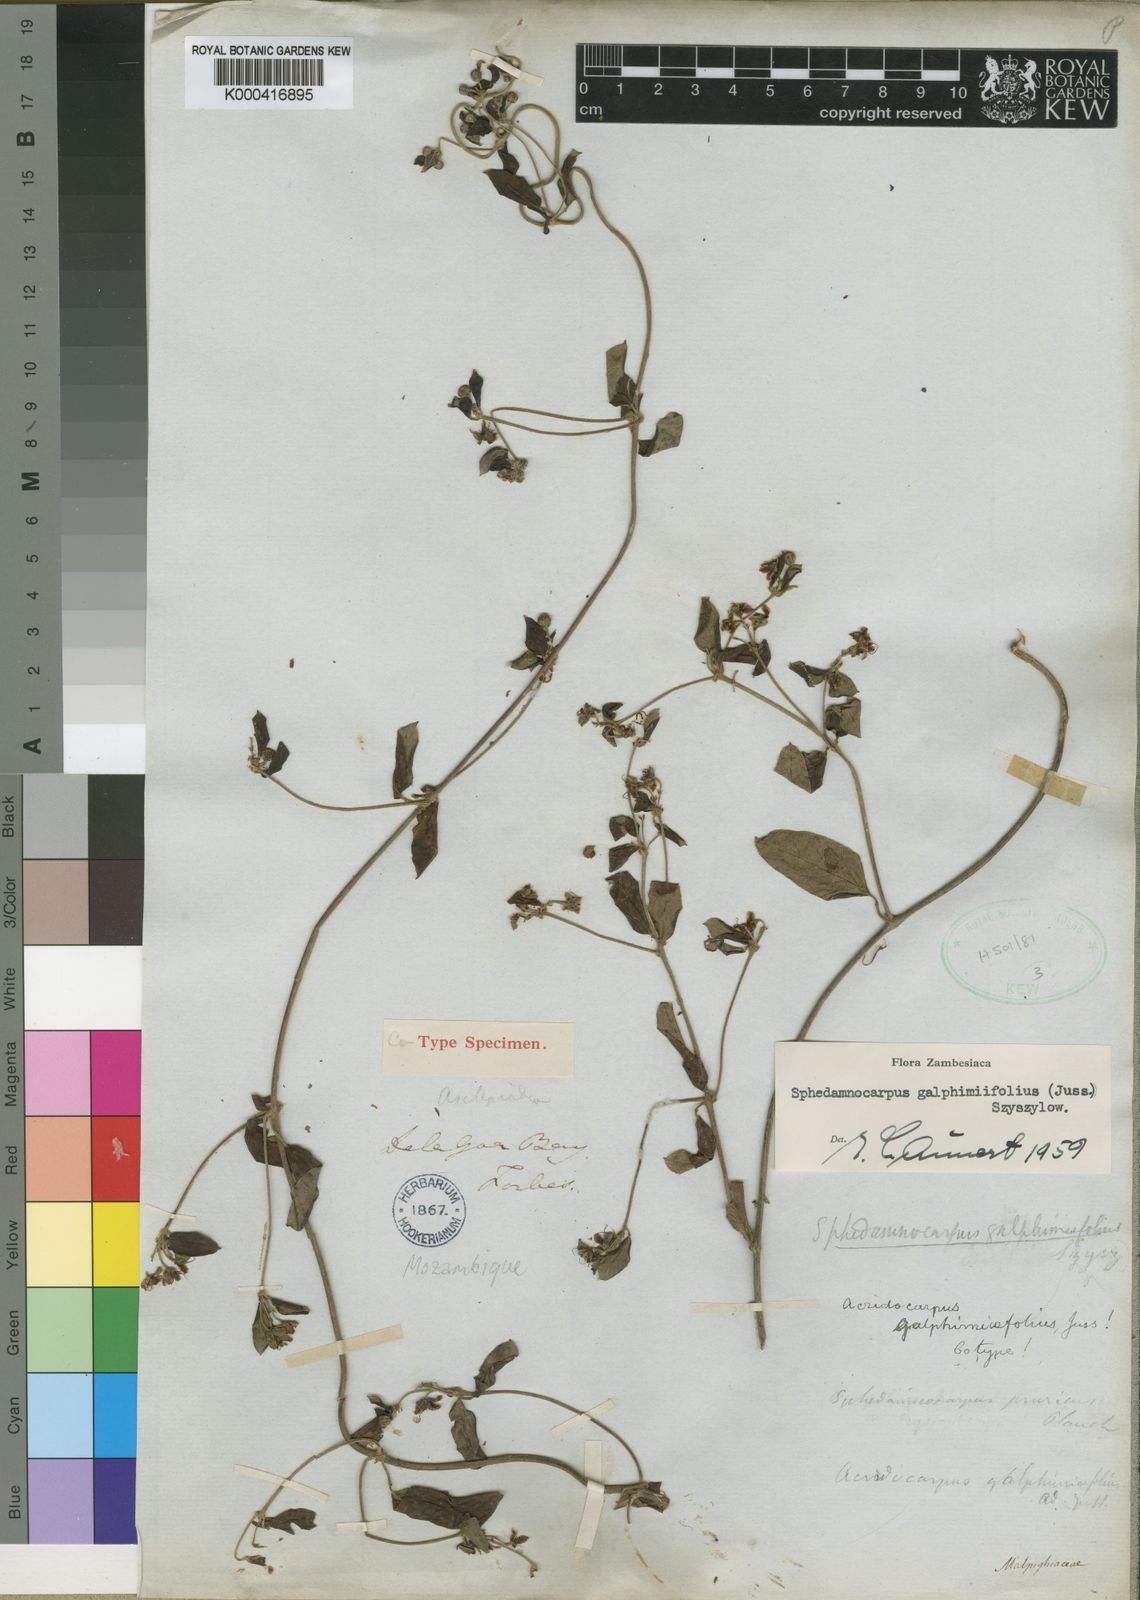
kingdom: Plantae
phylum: Tracheophyta
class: Magnoliopsida
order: Malpighiales
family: Malpighiaceae
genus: Sphedamnocarpus
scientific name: Sphedamnocarpus galphimiifolius
